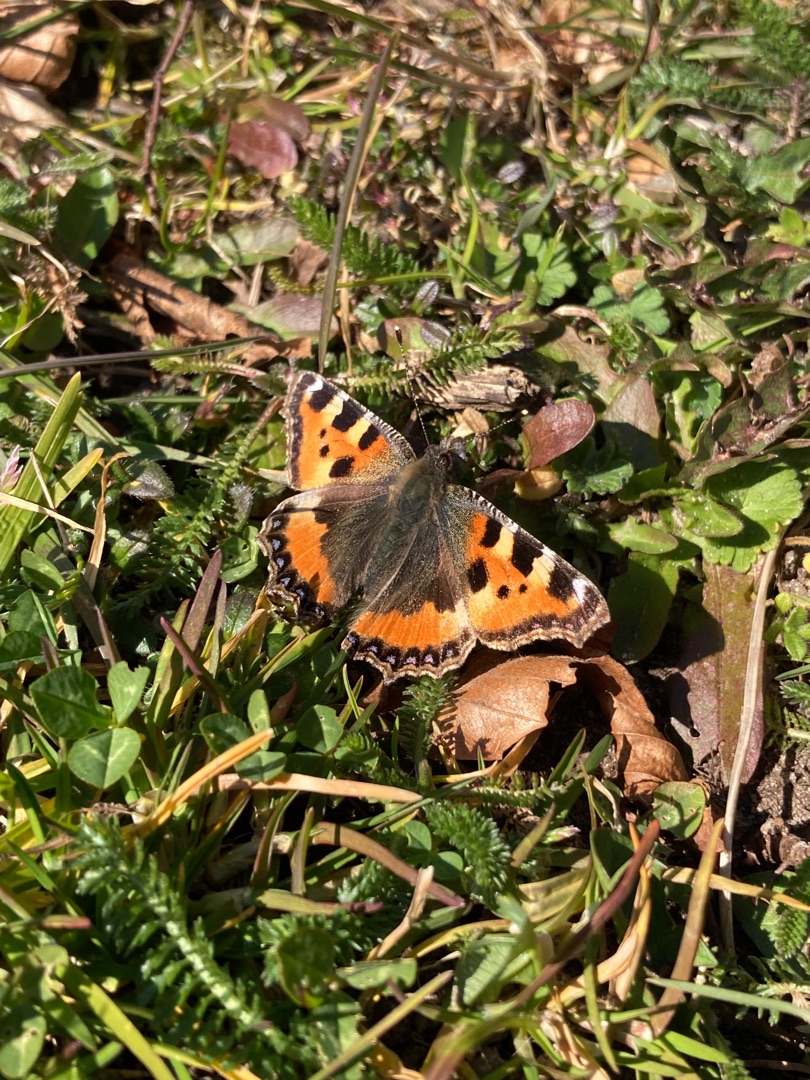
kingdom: Animalia
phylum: Arthropoda
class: Insecta
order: Lepidoptera
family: Nymphalidae
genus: Aglais
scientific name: Aglais urticae
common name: Nældens takvinge
